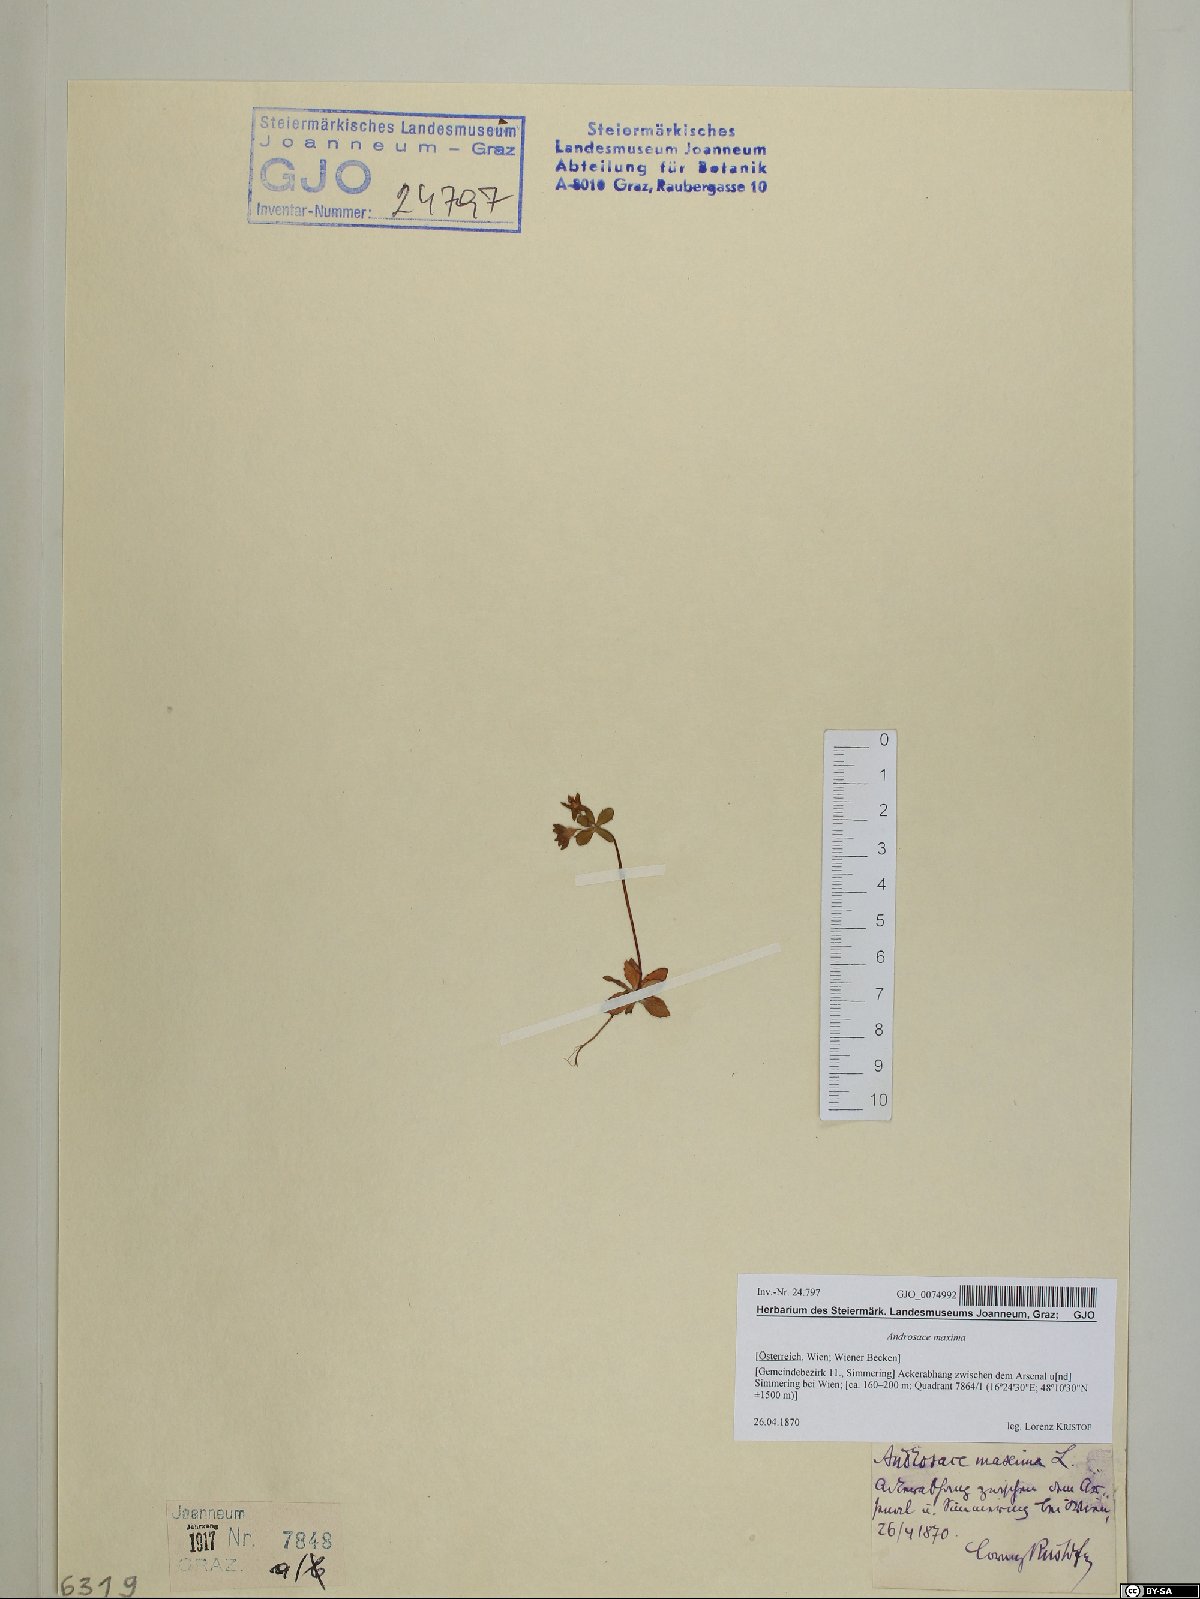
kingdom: Plantae
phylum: Tracheophyta
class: Magnoliopsida
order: Ericales
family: Primulaceae
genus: Androsace
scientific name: Androsace maxima
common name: Annual androsace
